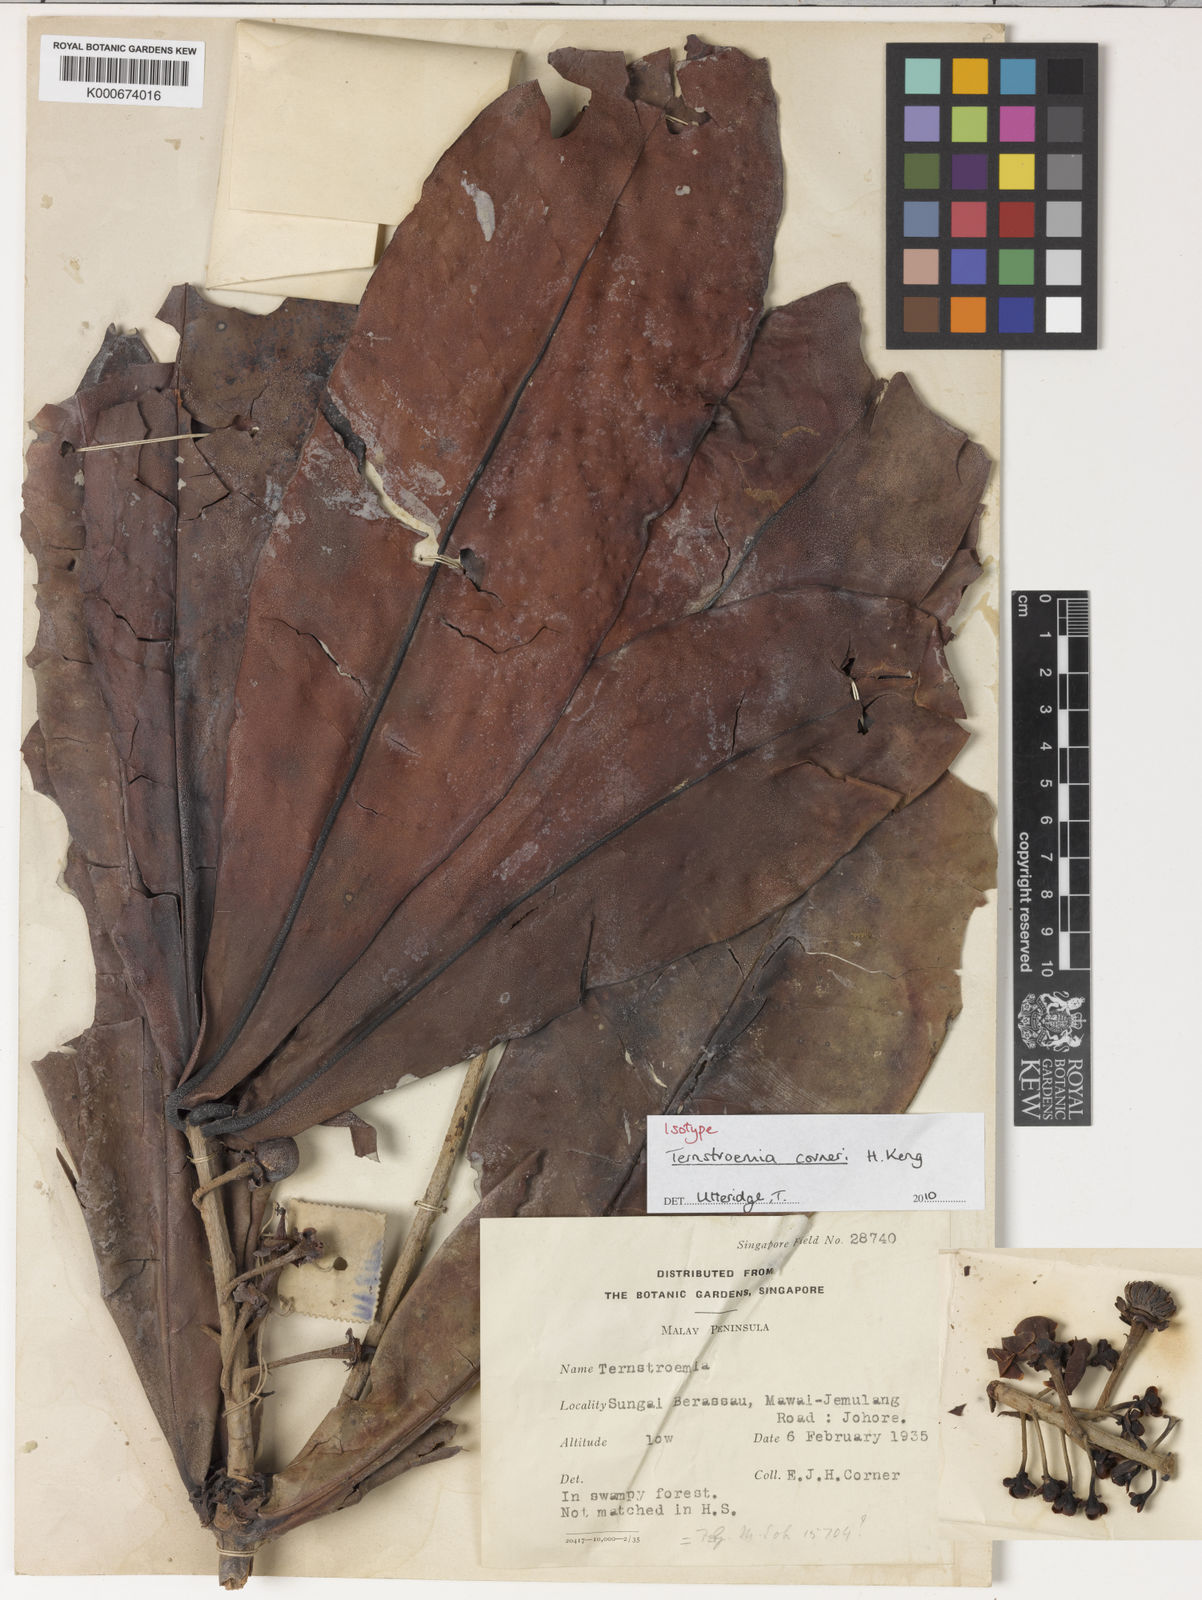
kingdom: Plantae
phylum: Tracheophyta
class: Magnoliopsida
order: Ericales
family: Pentaphylacaceae
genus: Ternstroemia
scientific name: Ternstroemia
